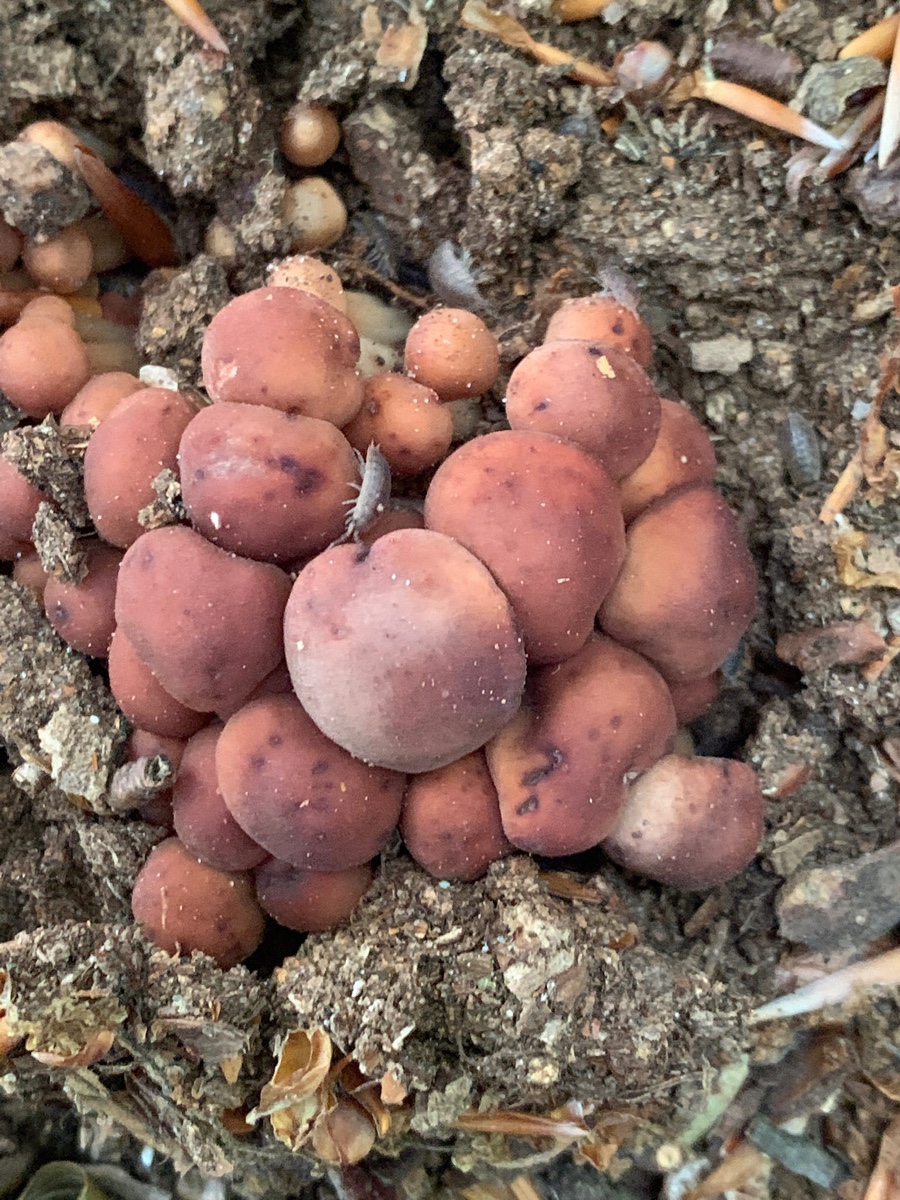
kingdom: Fungi
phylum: Basidiomycota
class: Agaricomycetes
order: Agaricales
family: Omphalotaceae
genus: Gymnopus
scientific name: Gymnopus fusipes
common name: tenstokket fladhat
